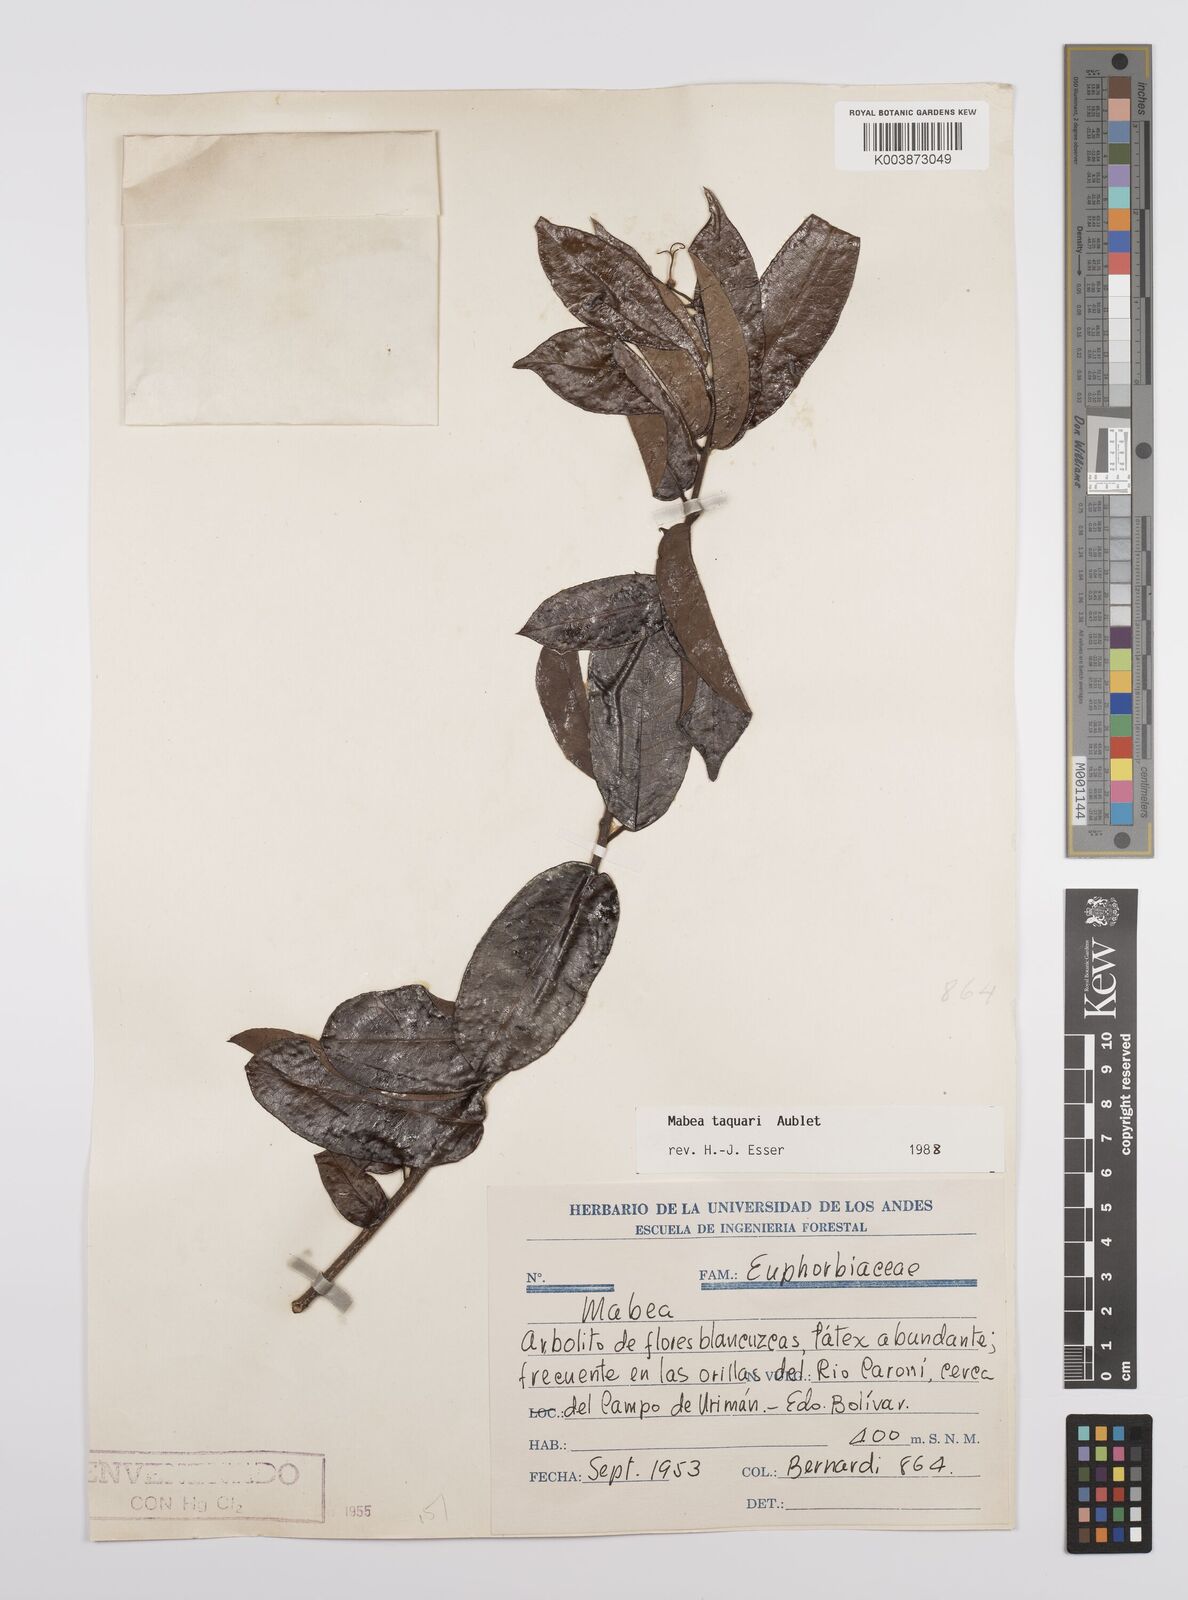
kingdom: Plantae
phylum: Tracheophyta
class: Magnoliopsida
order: Malpighiales
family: Euphorbiaceae
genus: Mabea
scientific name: Mabea taquari
